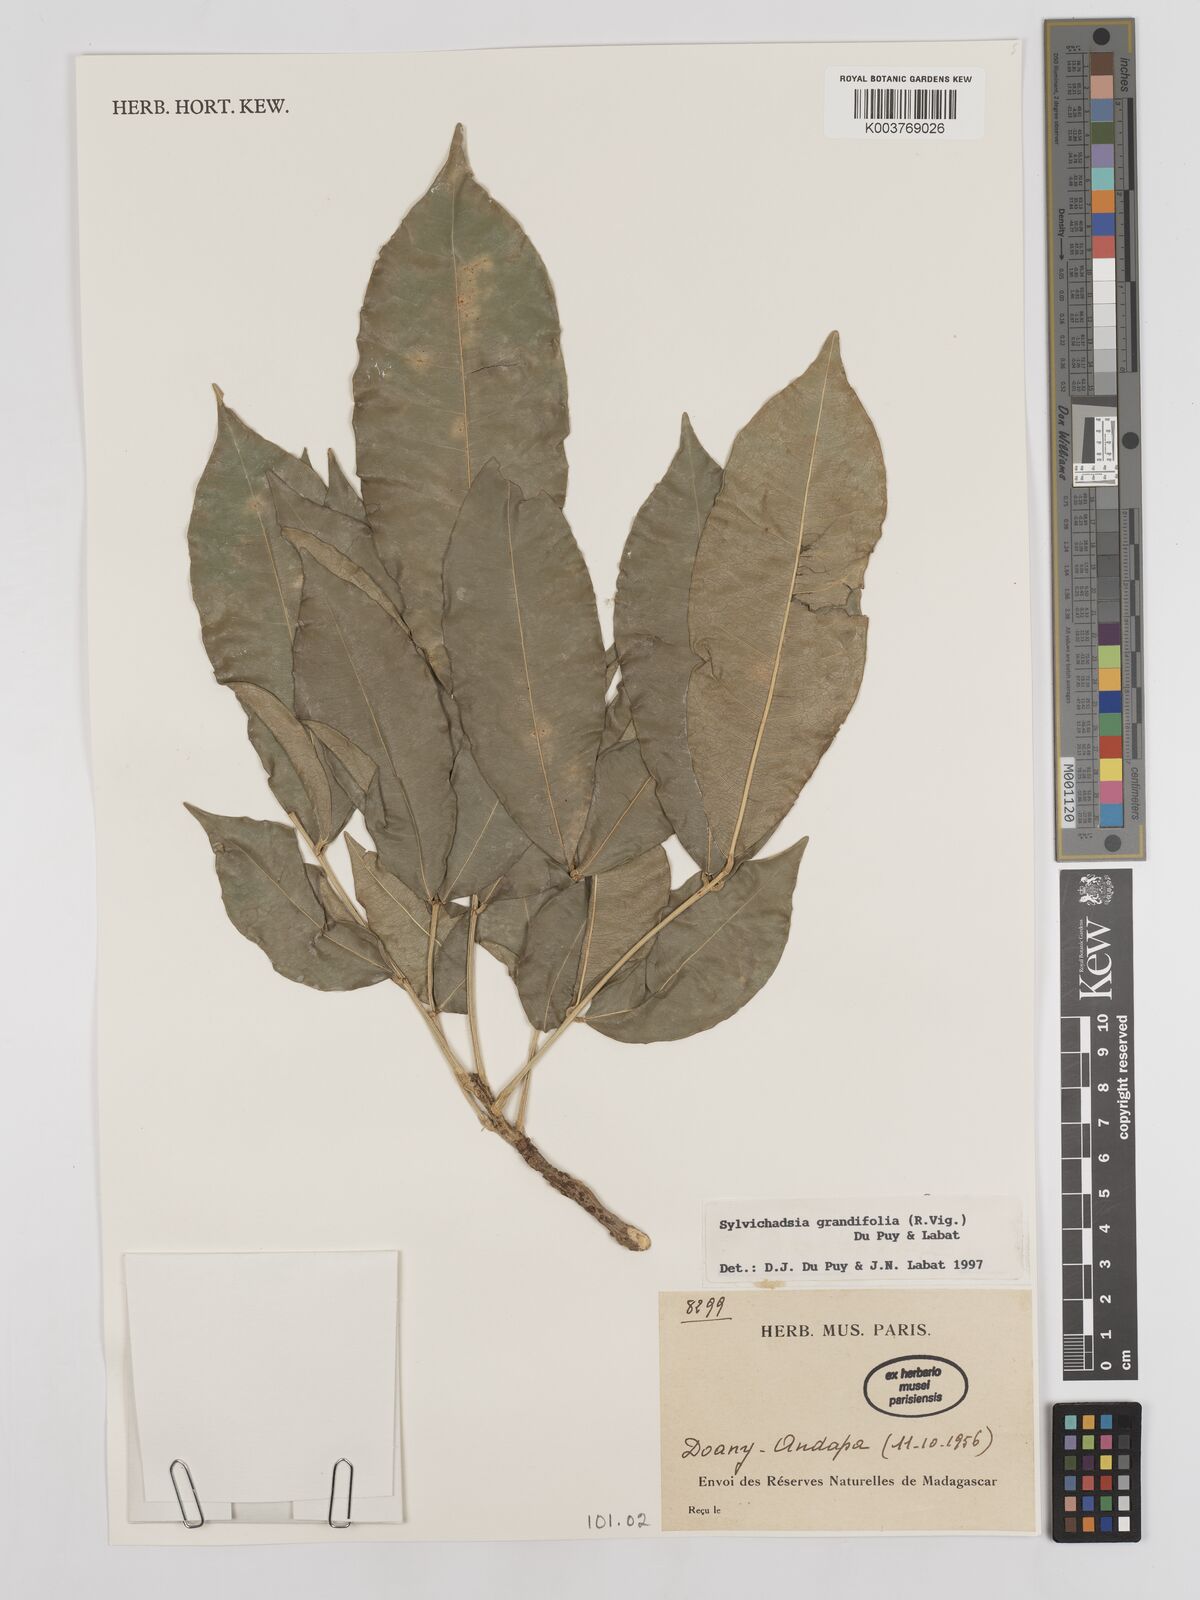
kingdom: Plantae
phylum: Tracheophyta
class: Magnoliopsida
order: Fabales
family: Fabaceae
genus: Sylvichadsia
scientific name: Sylvichadsia grandifolia
